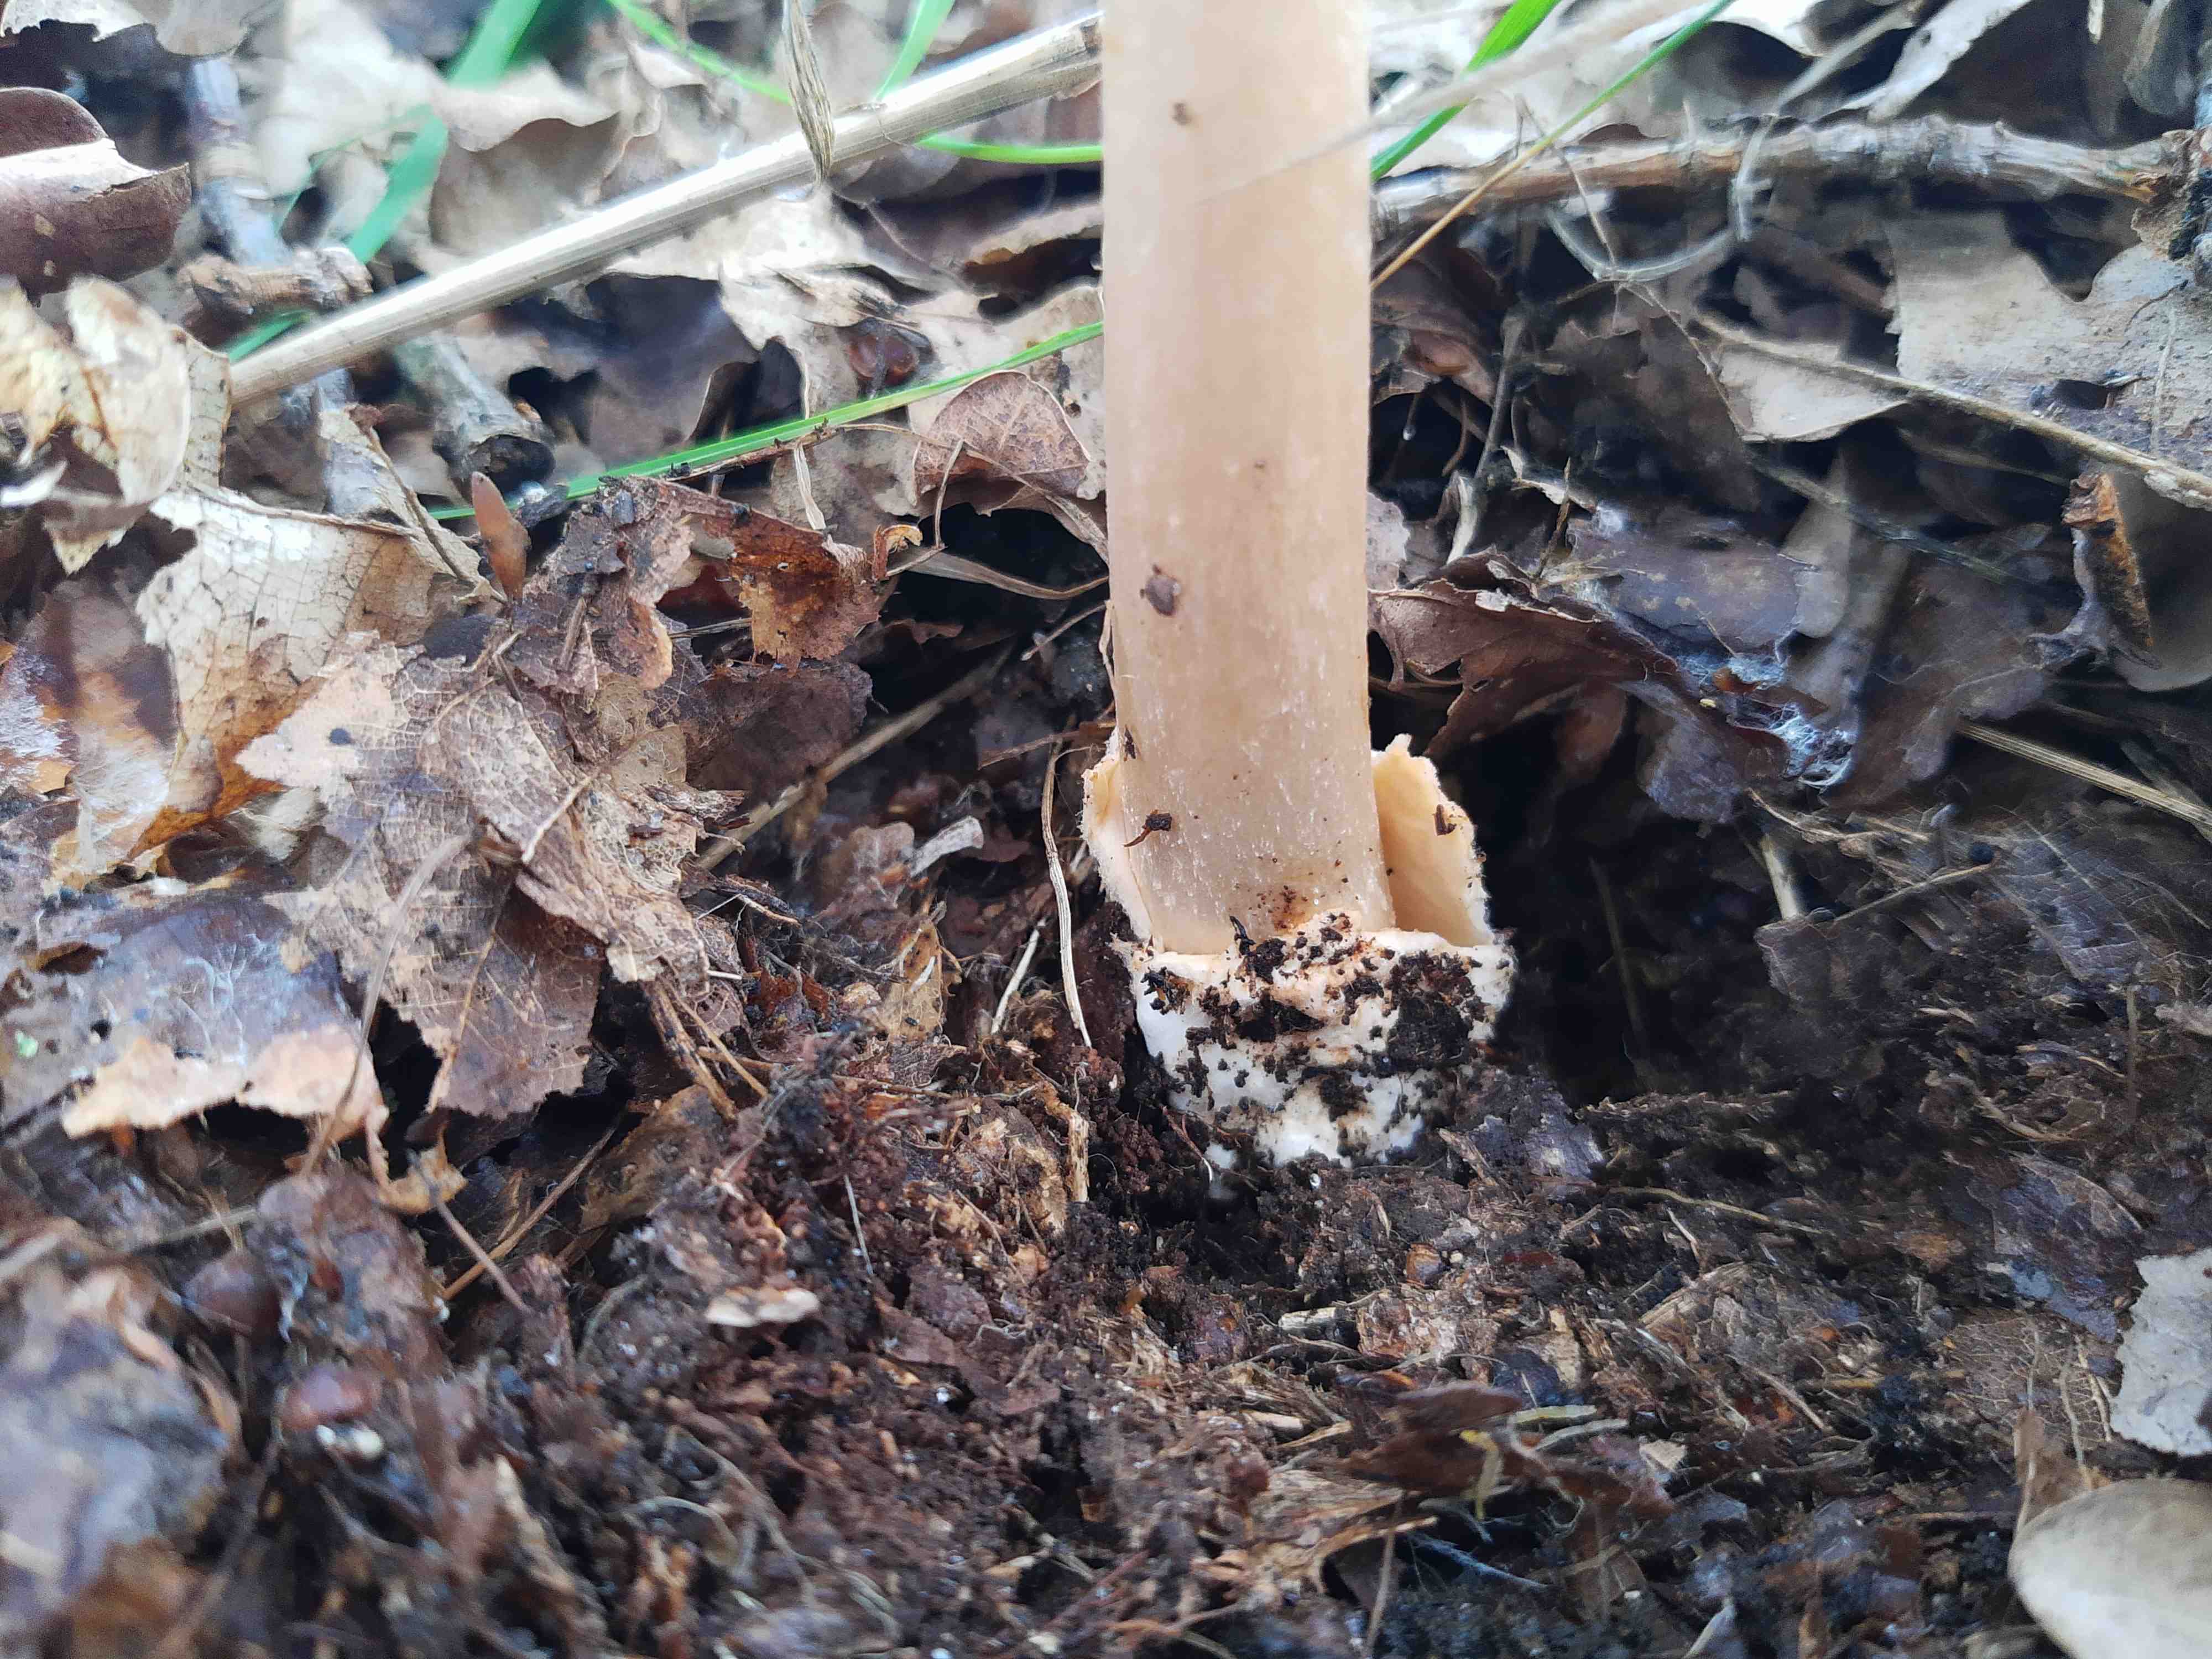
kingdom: Fungi
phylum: Basidiomycota
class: Agaricomycetes
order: Agaricales
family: Amanitaceae
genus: Amanita
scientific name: Amanita fulva
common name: brun kam-fluesvamp
